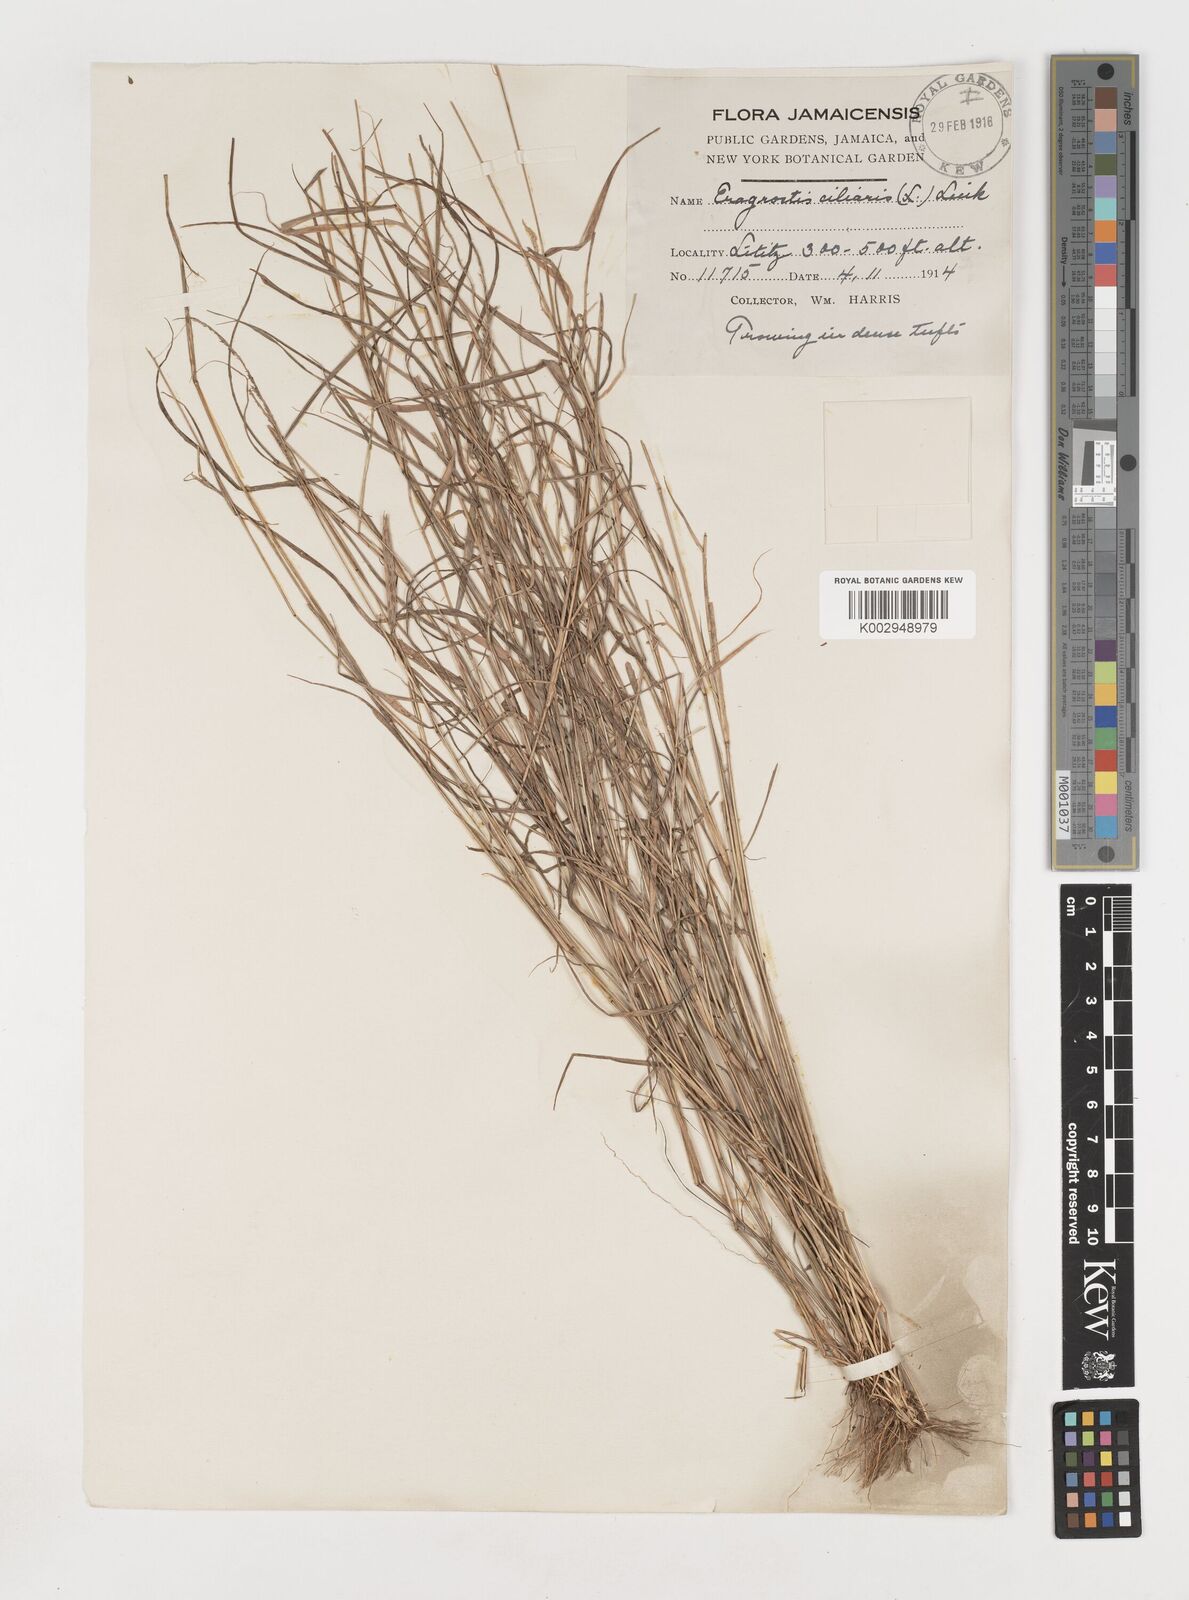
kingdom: Plantae
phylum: Tracheophyta
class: Liliopsida
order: Poales
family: Poaceae
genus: Eragrostis
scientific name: Eragrostis ciliaris
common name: Gophertail lovegrass
